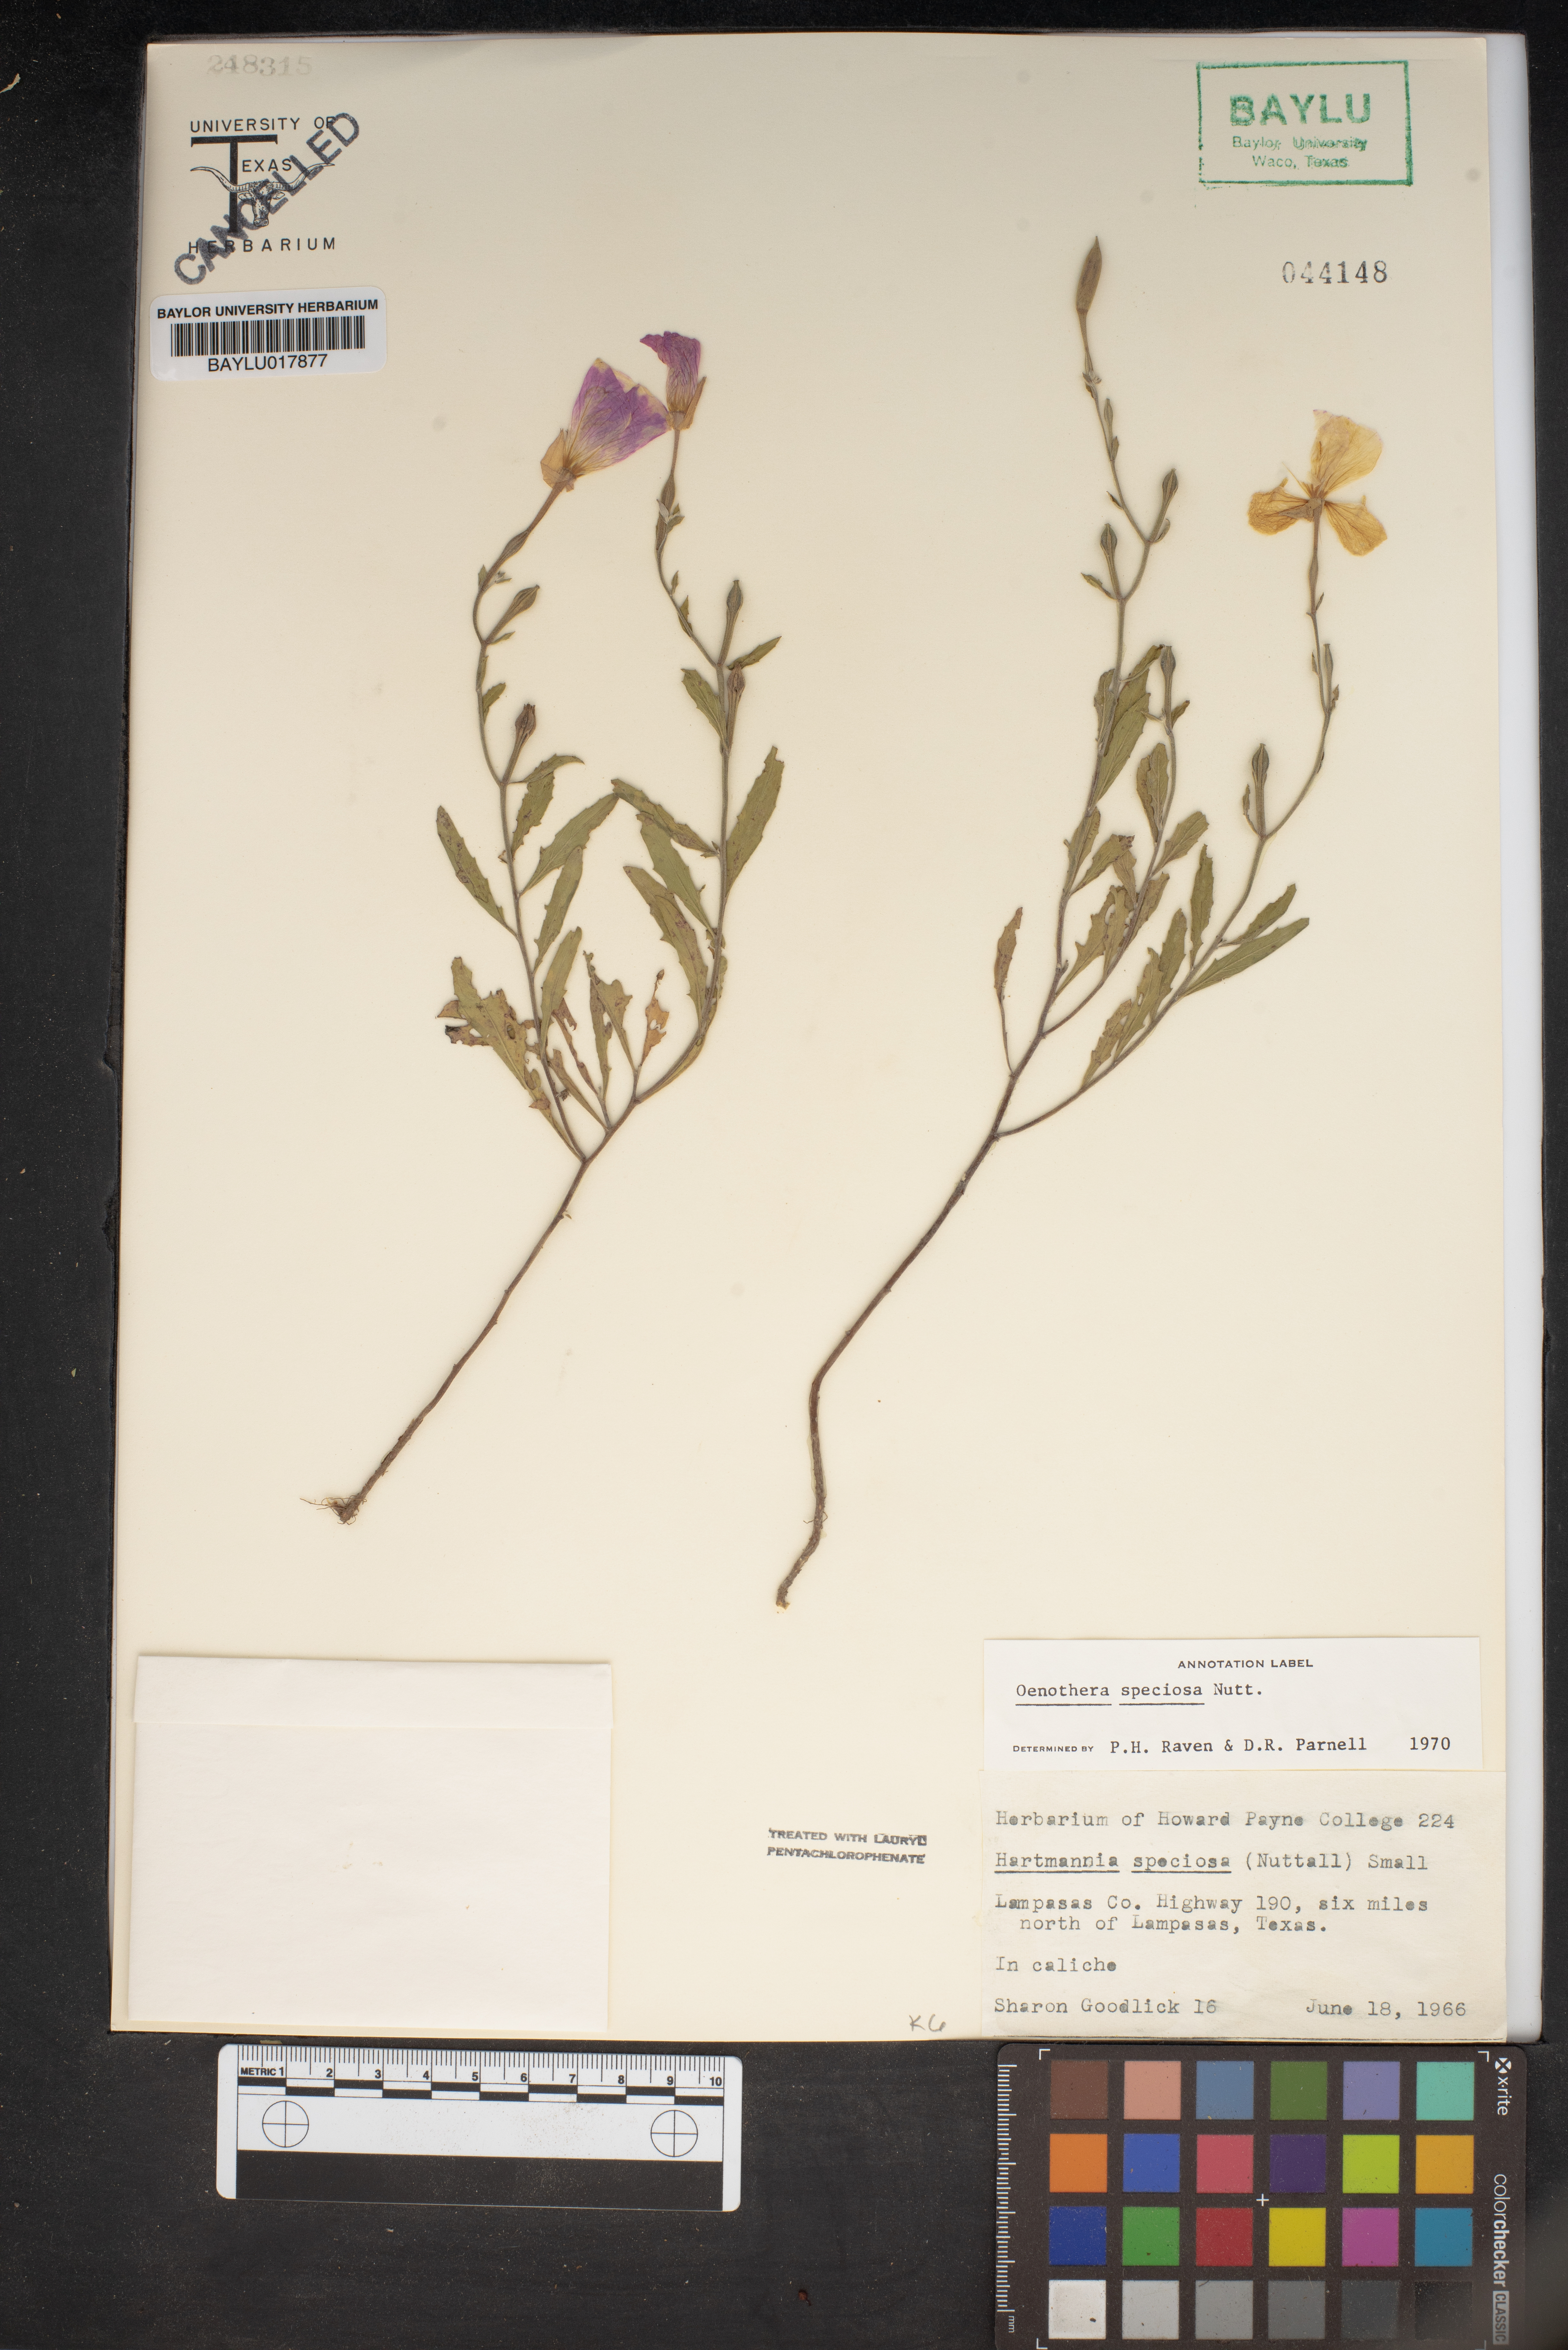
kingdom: Plantae
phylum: Tracheophyta
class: Magnoliopsida
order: Myrtales
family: Onagraceae
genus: Oenothera
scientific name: Oenothera speciosa
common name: White evening-primrose
